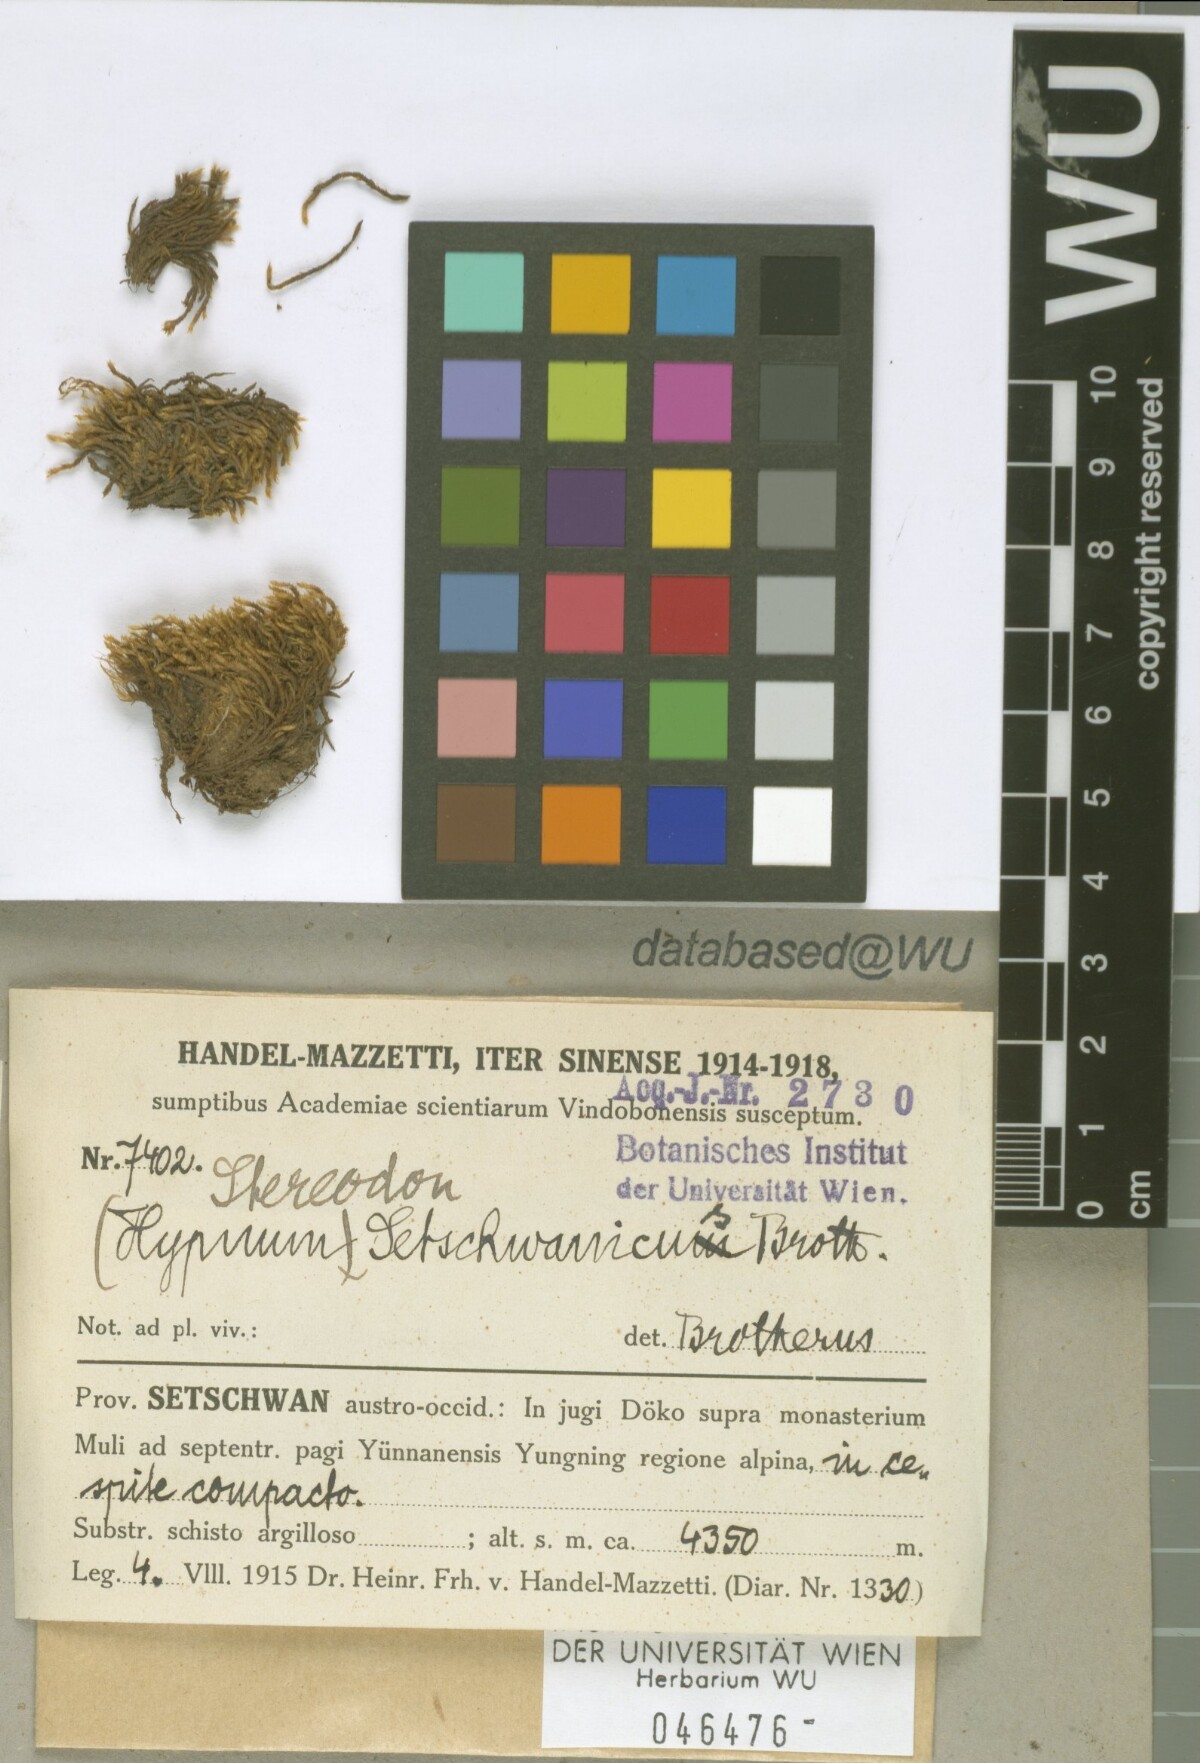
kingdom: Plantae
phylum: Bryophyta
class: Bryopsida
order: Hypnales
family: Hypnaceae
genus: Hypnum
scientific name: Hypnum setschwanicum
